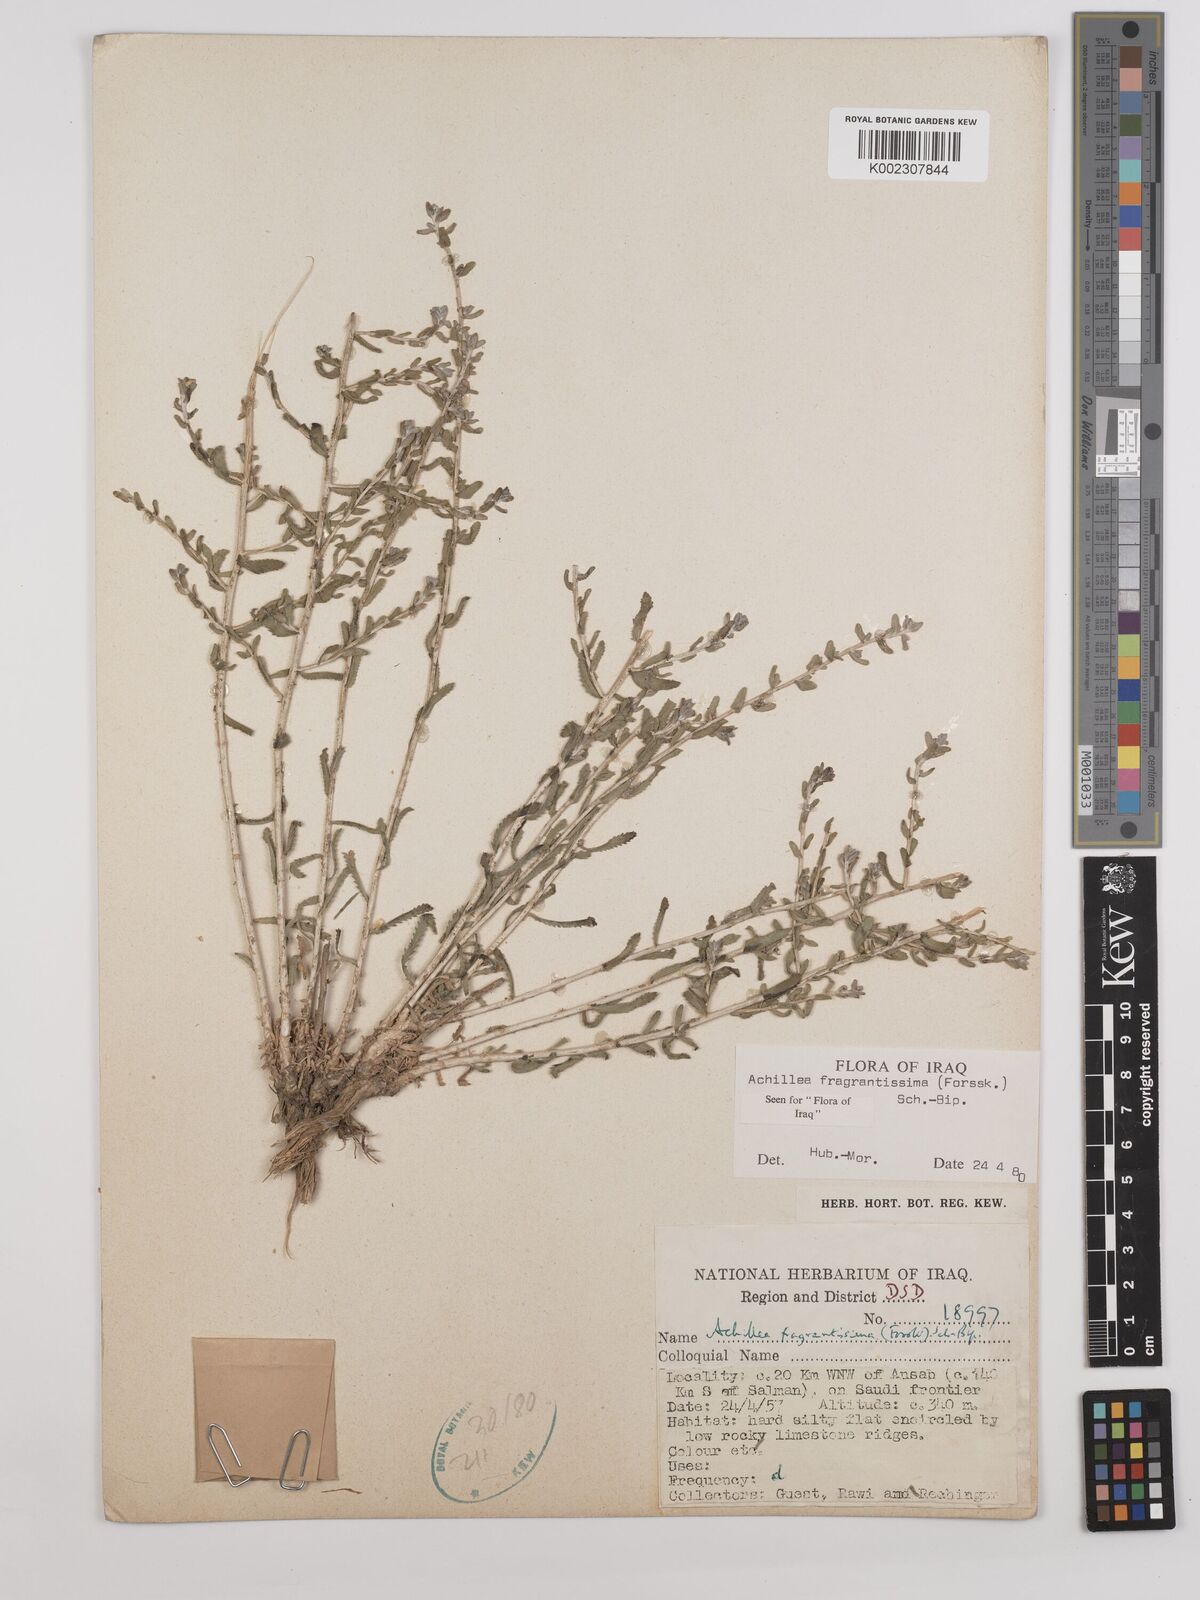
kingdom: Plantae
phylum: Tracheophyta
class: Magnoliopsida
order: Asterales
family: Asteraceae
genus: Achillea
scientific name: Achillea fragrantissima
